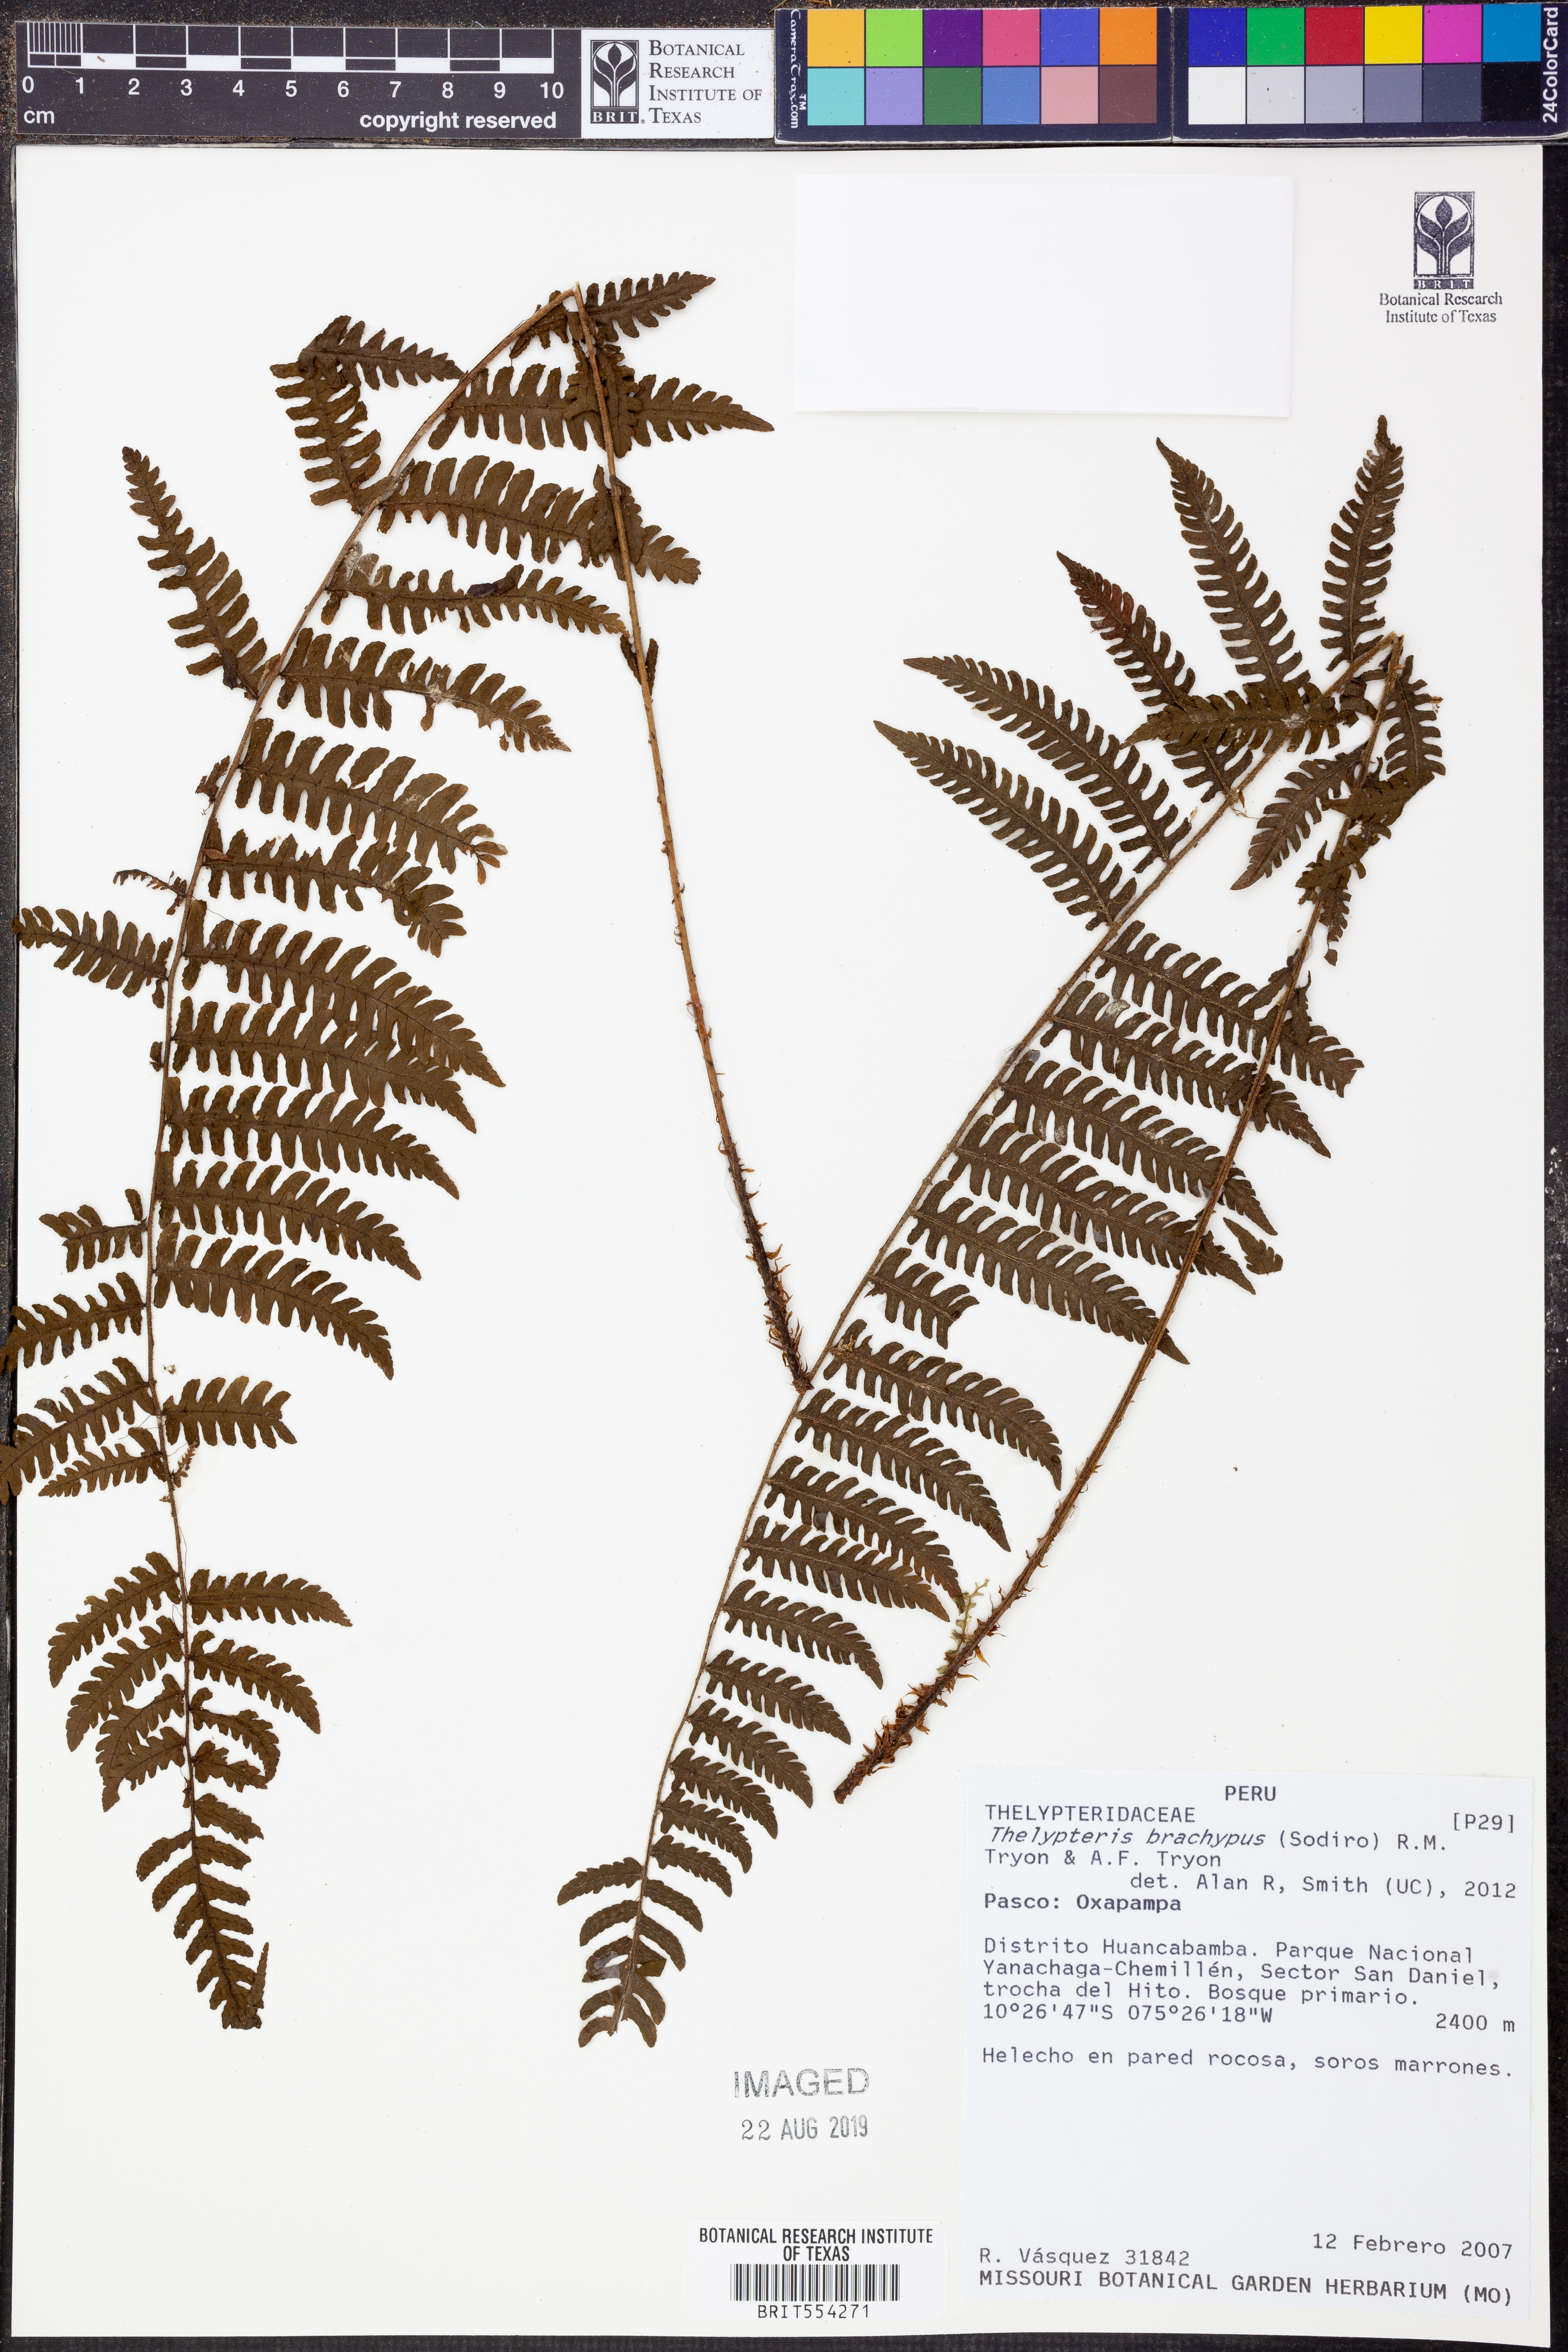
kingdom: Plantae
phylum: Tracheophyta
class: Polypodiopsida
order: Polypodiales
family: Thelypteridaceae
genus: Amauropelta
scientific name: Amauropelta brachypus
